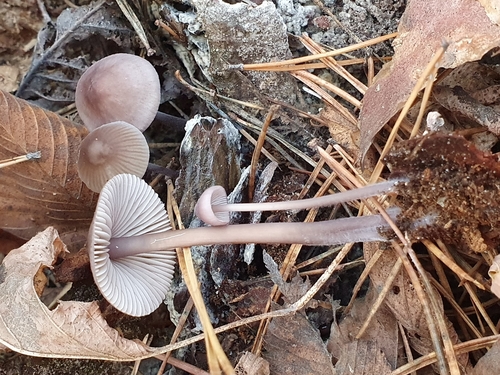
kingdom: Fungi
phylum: Basidiomycota
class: Agaricomycetes
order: Agaricales
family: Mycenaceae
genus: Mycena
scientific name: Mycena purpureofusca
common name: Purple edge bonnet
